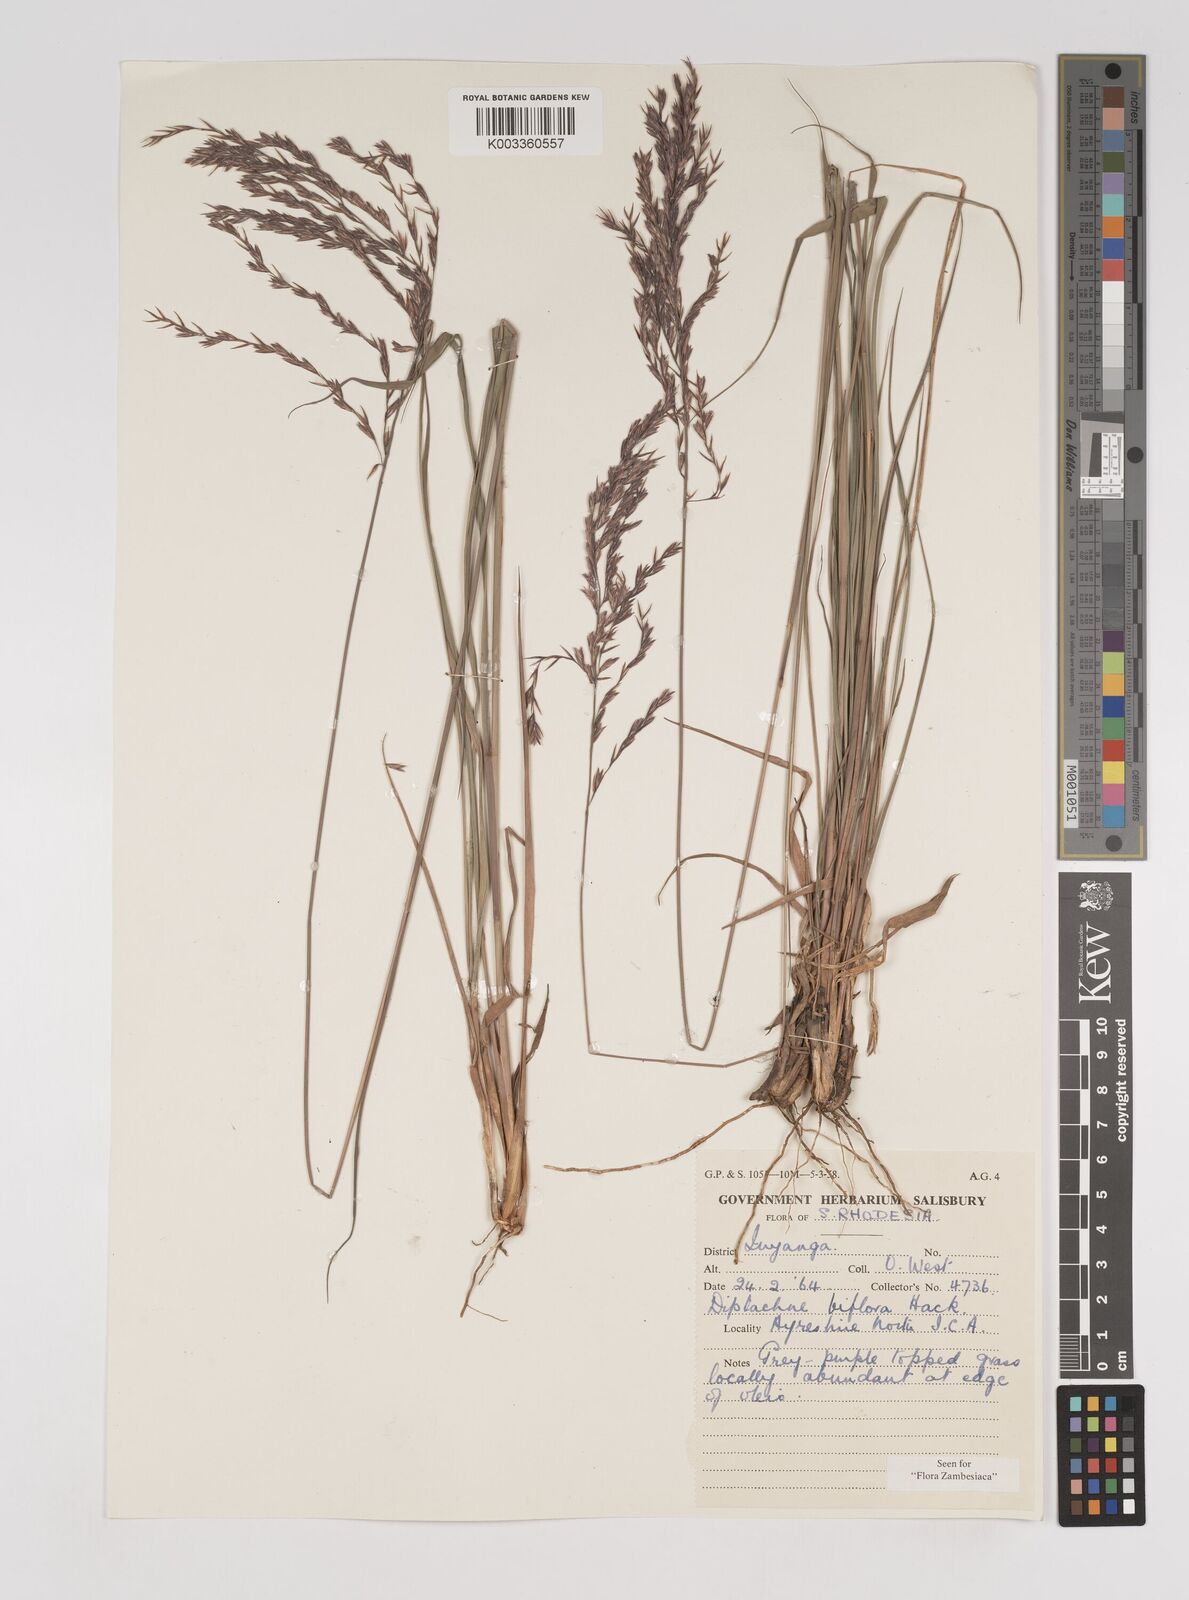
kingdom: Plantae
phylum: Tracheophyta
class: Liliopsida
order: Poales
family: Poaceae
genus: Bewsia
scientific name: Bewsia biflora
